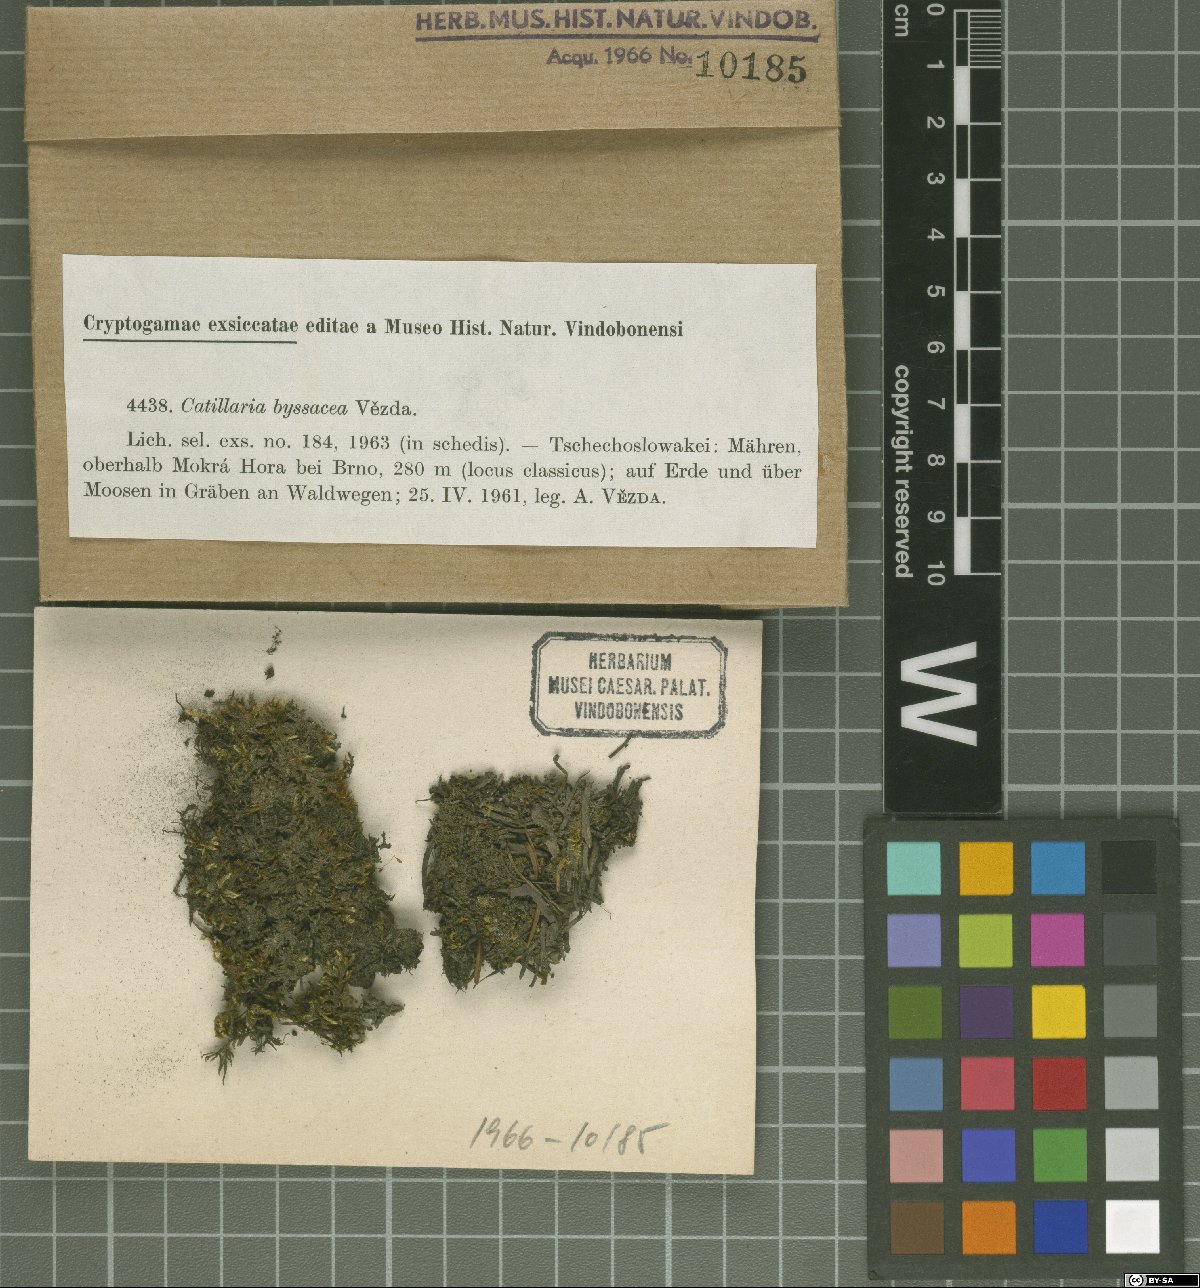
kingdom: Fungi
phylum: Ascomycota
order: Vezdaeales
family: Vezdaeaceae
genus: Vezdaea
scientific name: Vezdaea aestivalis
